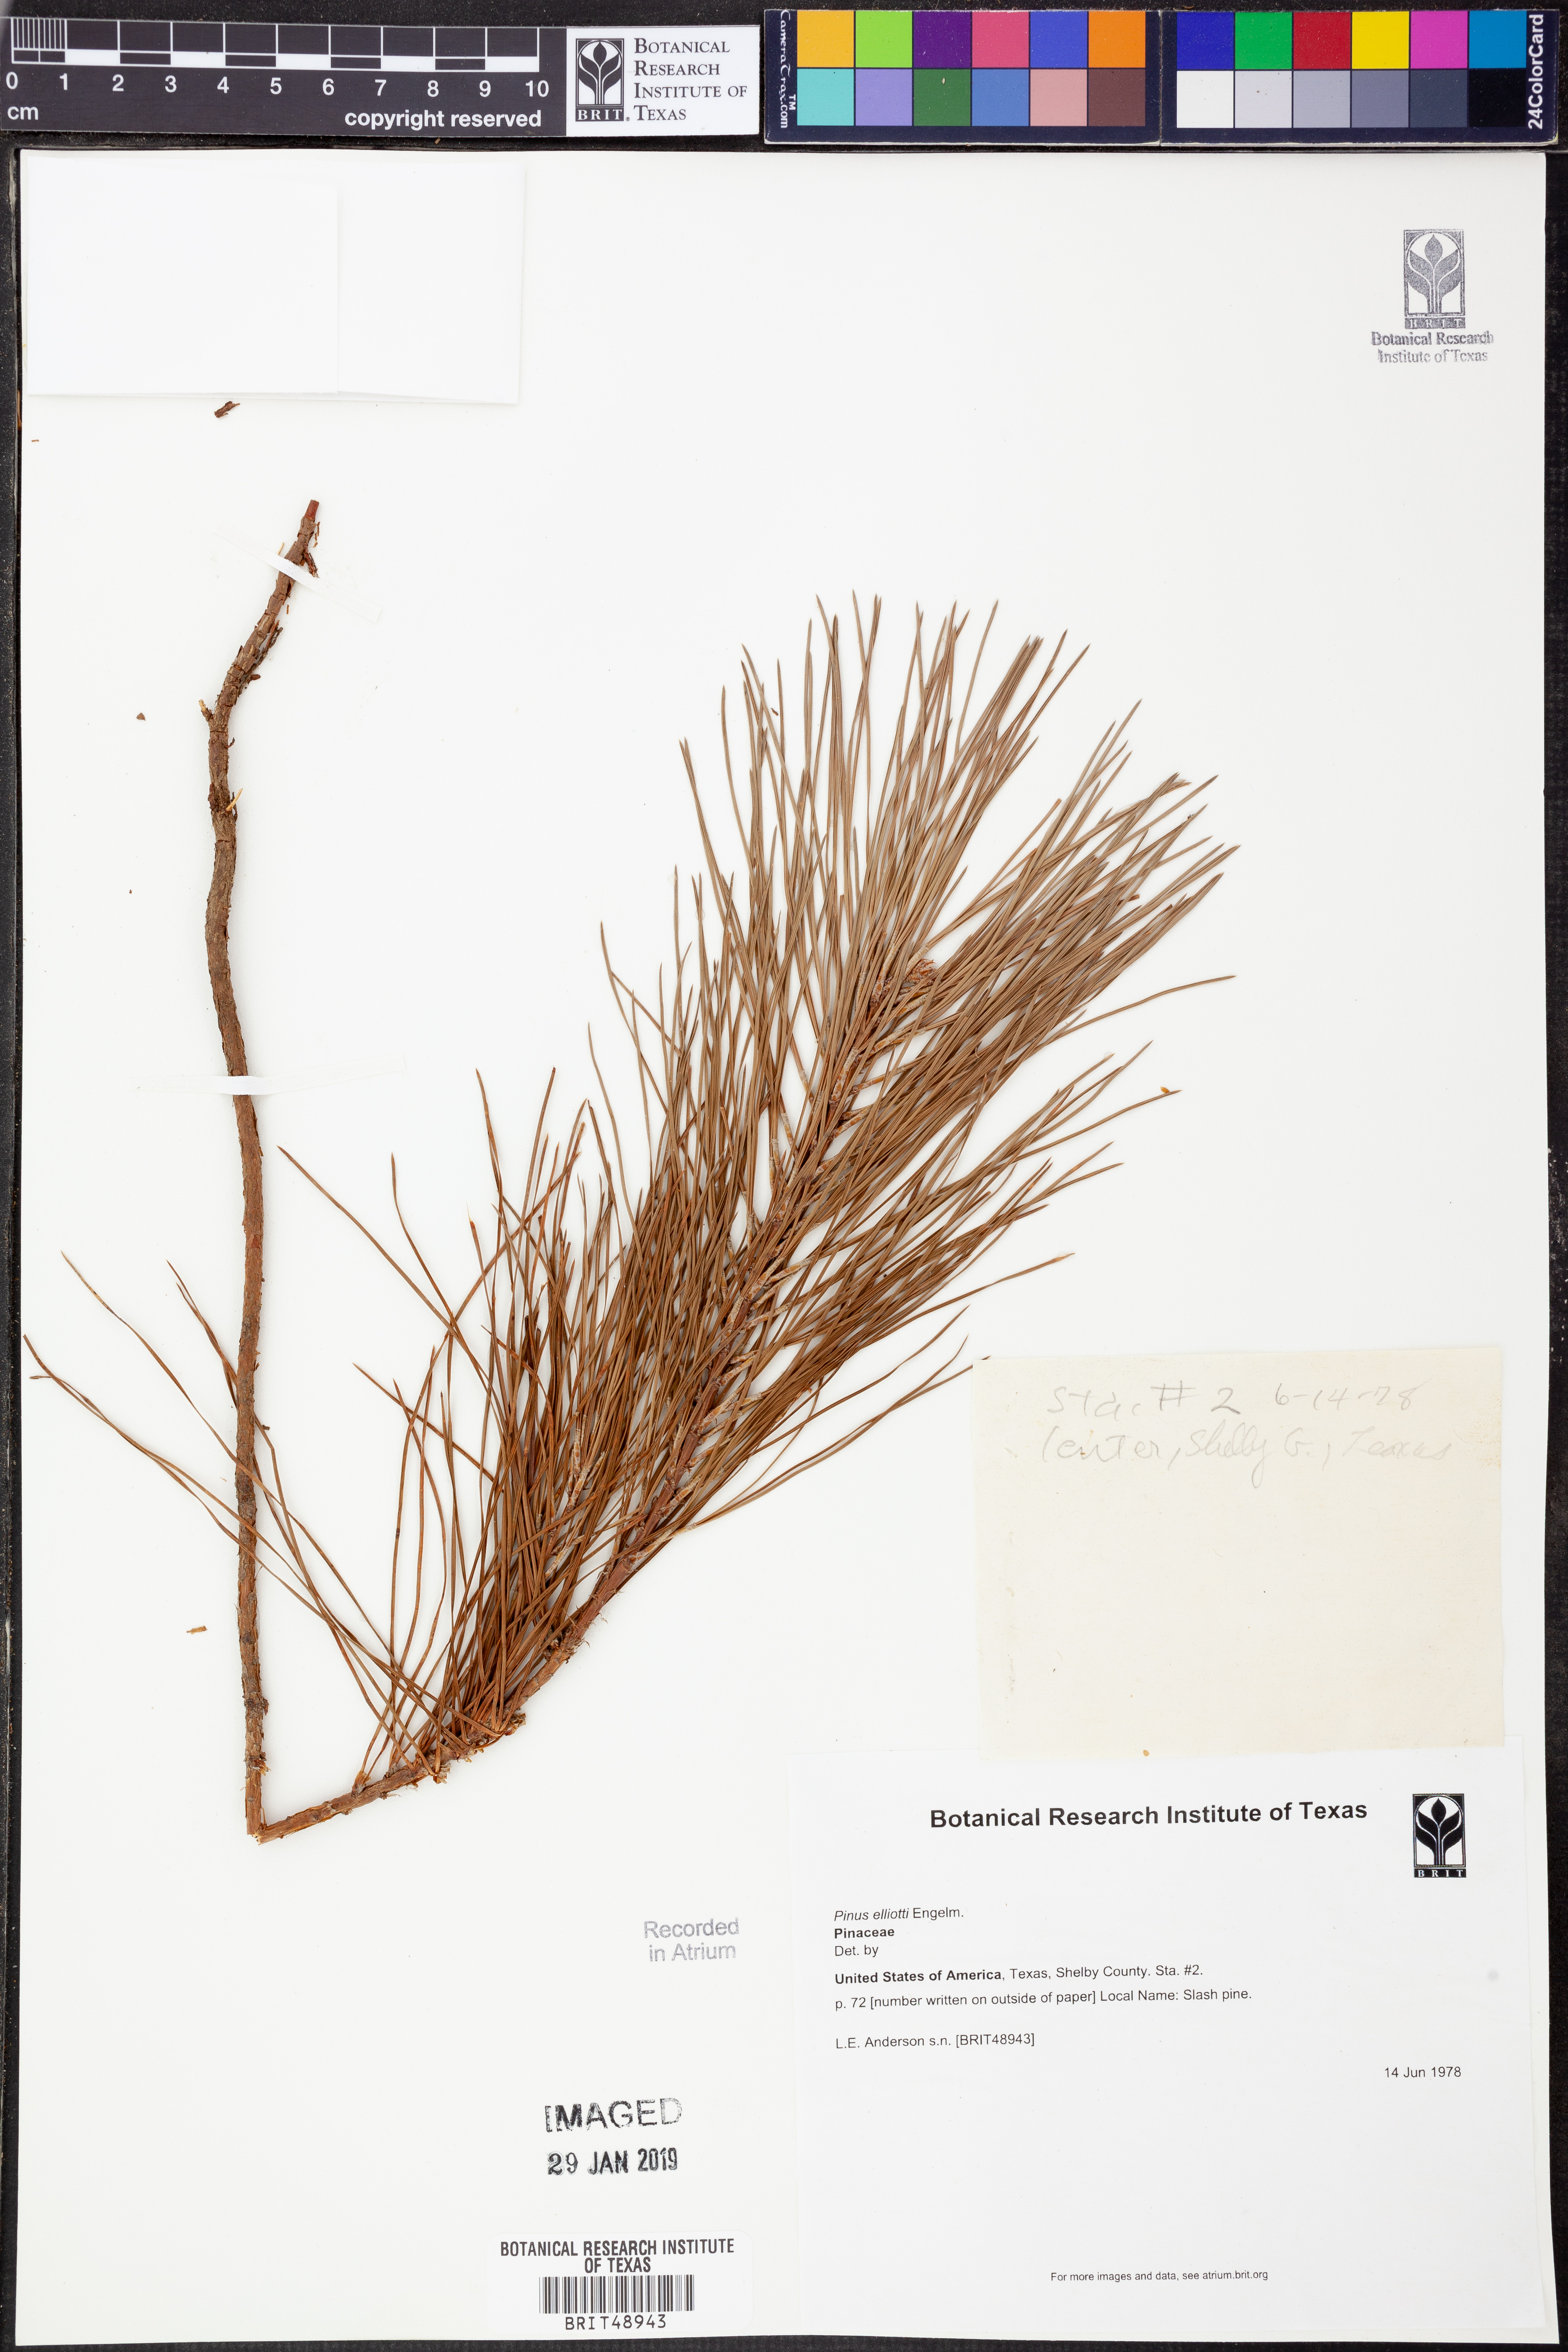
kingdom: Plantae
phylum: Tracheophyta
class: Pinopsida
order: Pinales
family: Pinaceae
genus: Pinus
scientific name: Pinus elliottii
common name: Slash pine
